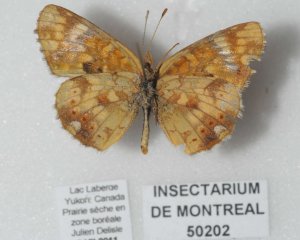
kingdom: Animalia
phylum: Arthropoda
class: Insecta
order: Lepidoptera
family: Nymphalidae
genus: Phyciodes
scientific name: Phyciodes tharos
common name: Field Crescent
